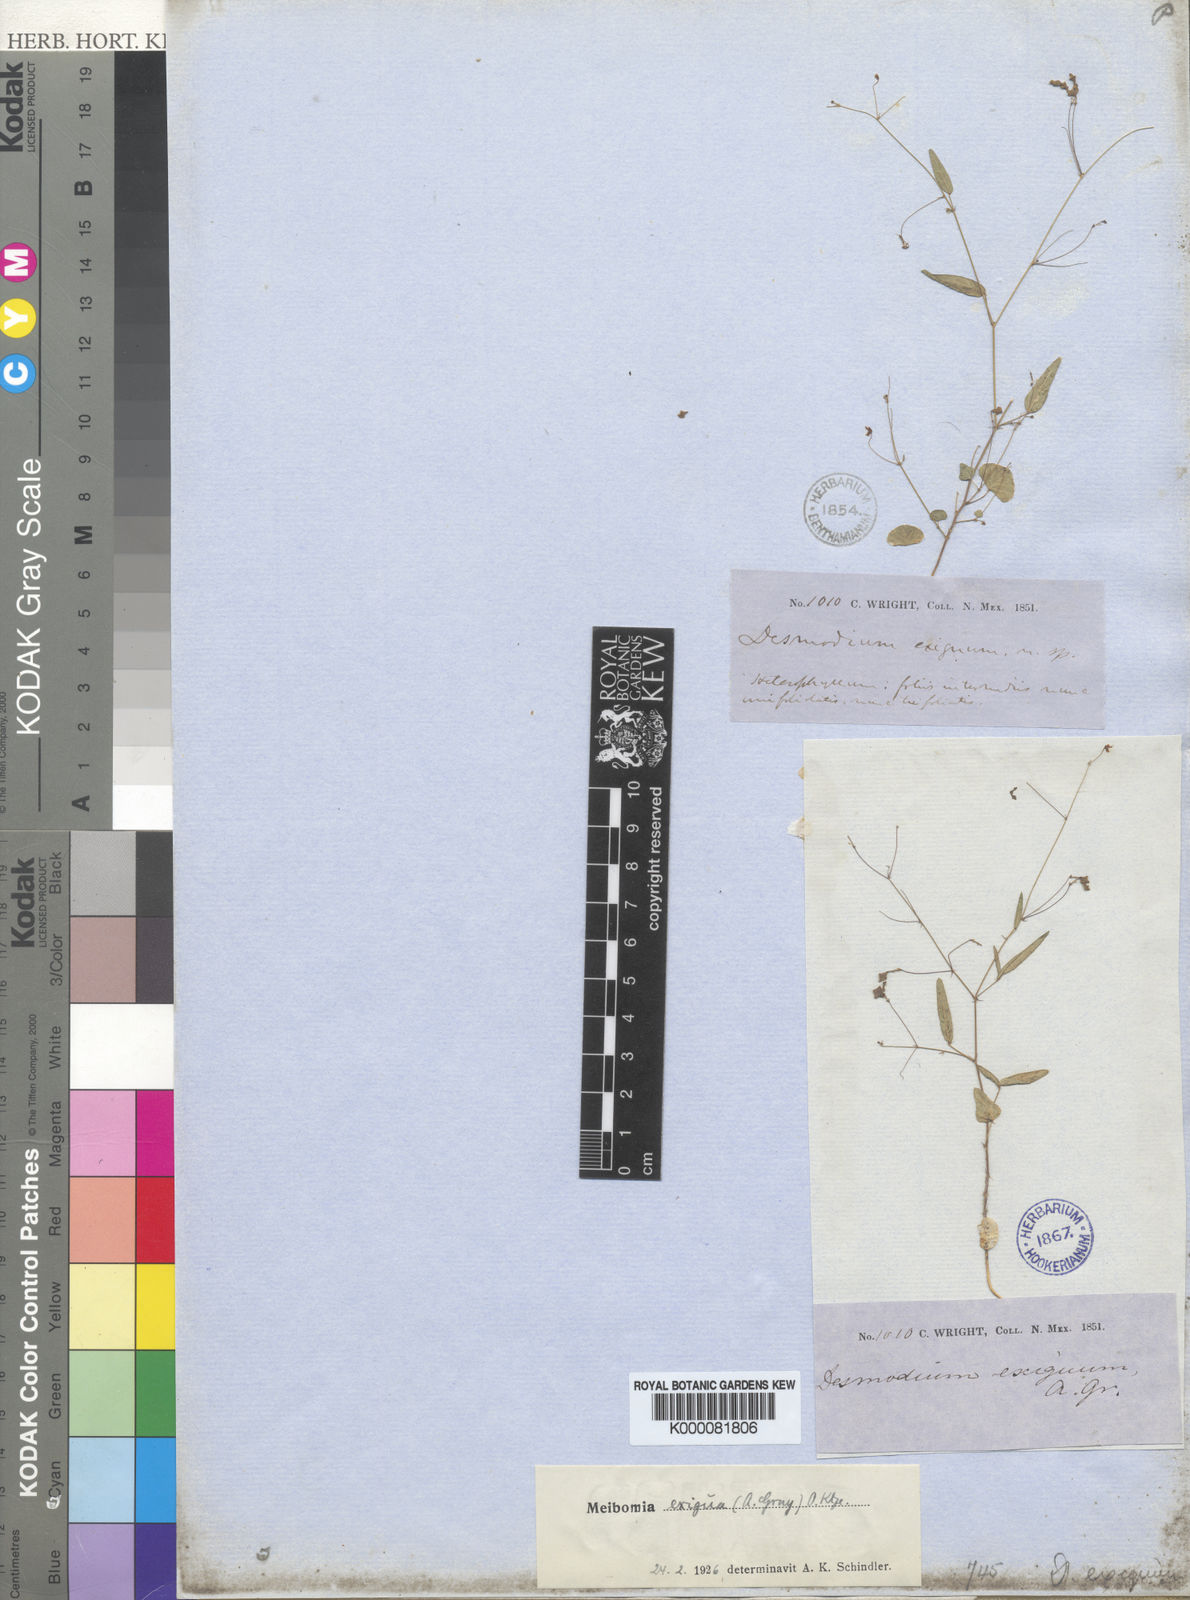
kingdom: Plantae
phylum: Tracheophyta
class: Magnoliopsida
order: Fabales
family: Fabaceae
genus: Desmodium
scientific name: Desmodium
